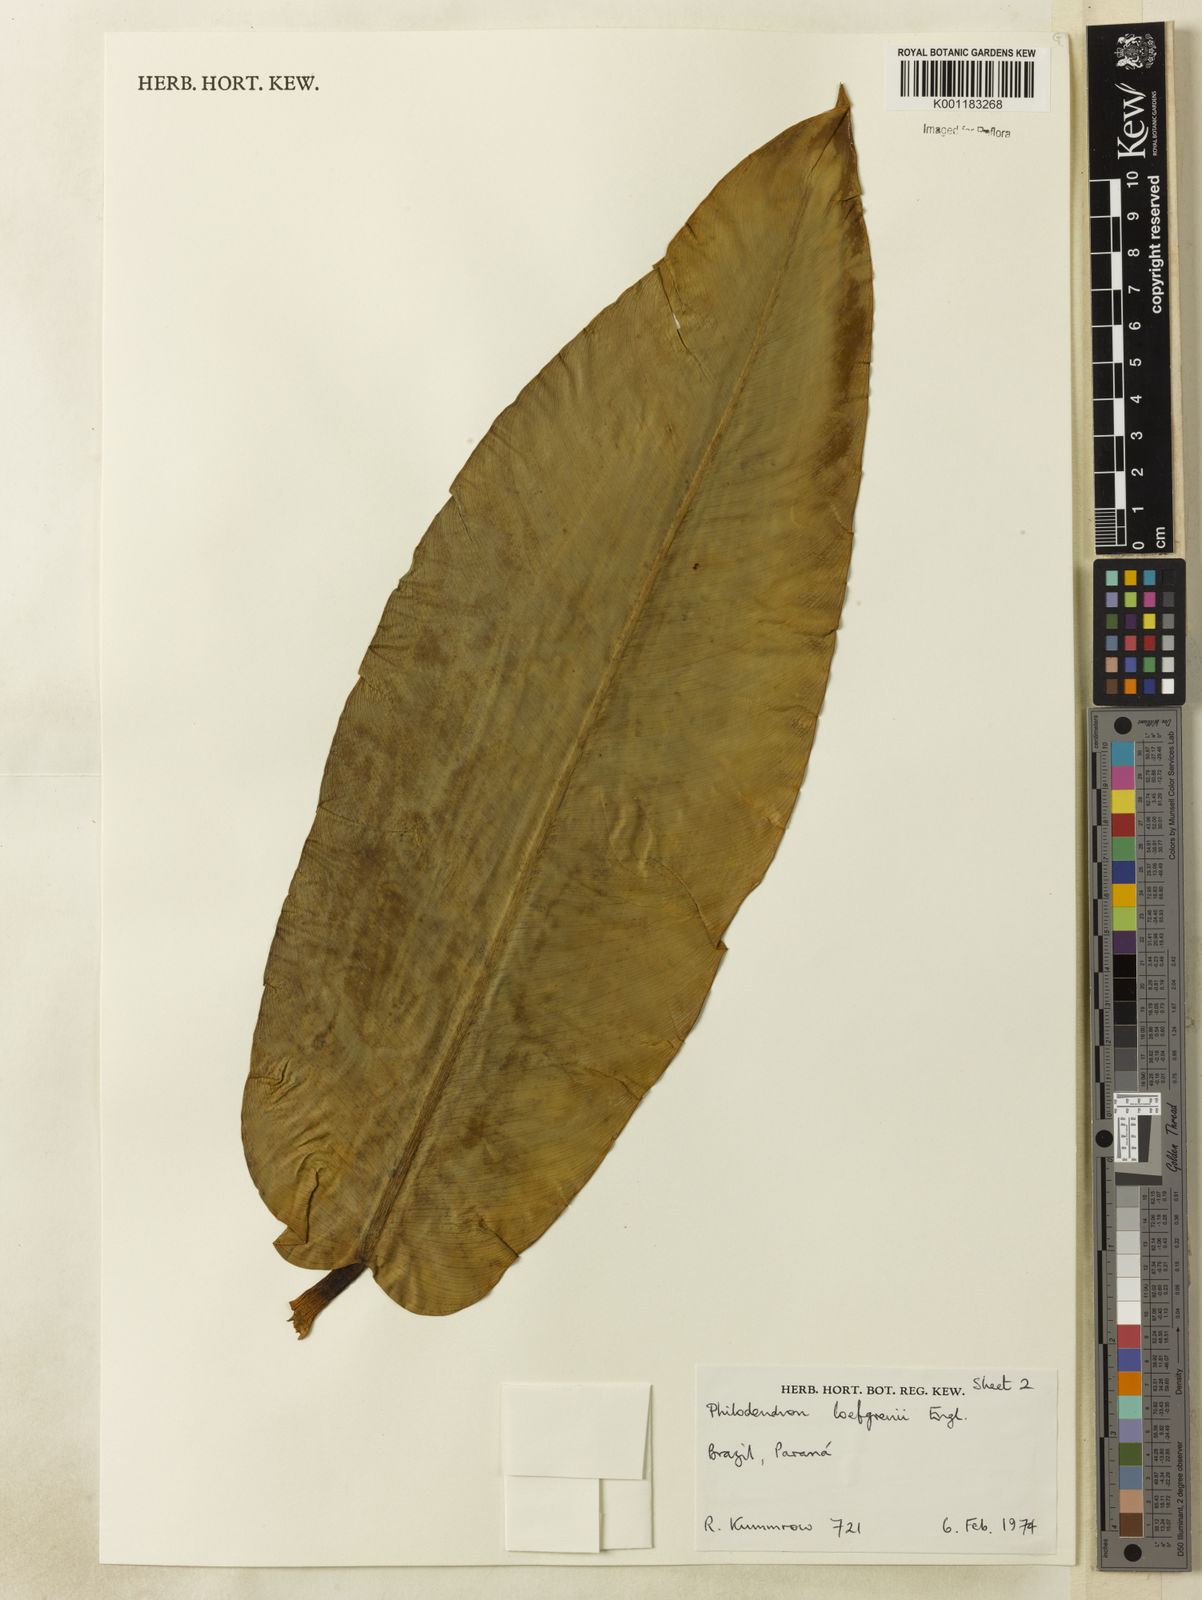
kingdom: Plantae
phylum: Tracheophyta
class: Liliopsida
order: Alismatales
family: Araceae
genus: Philodendron
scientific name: Philodendron loefgrenii
